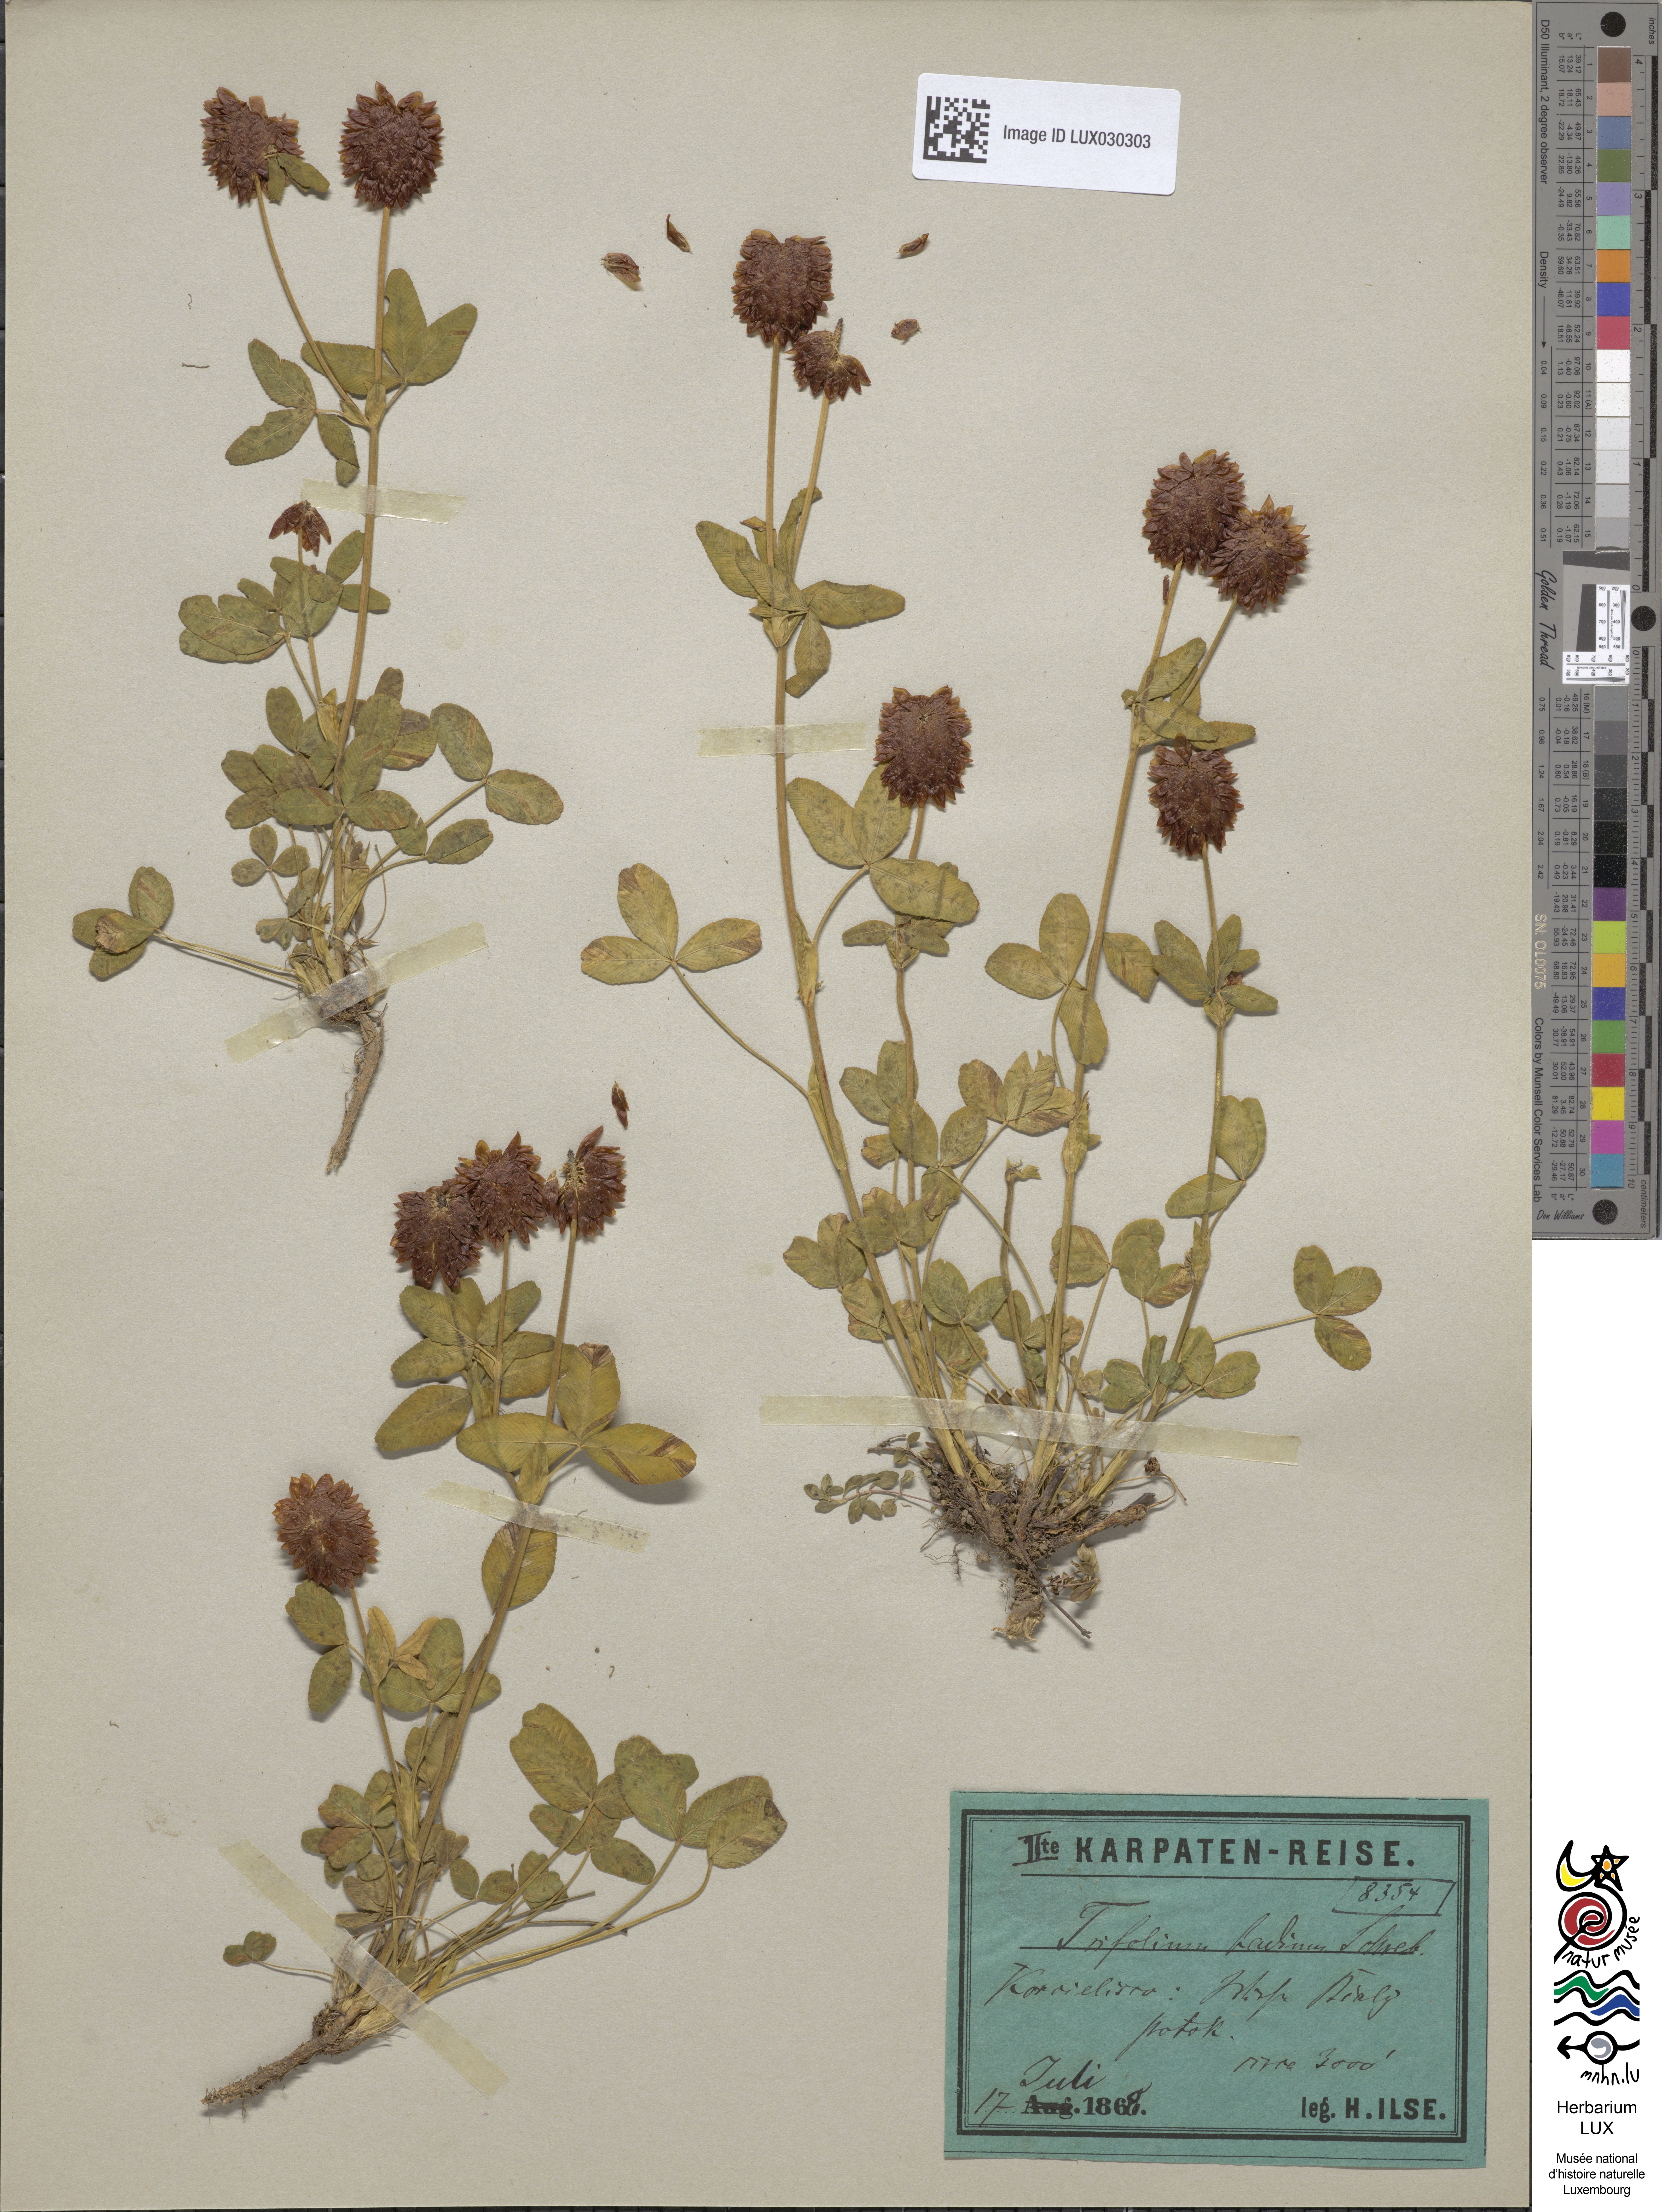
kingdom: Plantae
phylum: Tracheophyta
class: Magnoliopsida
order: Fabales
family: Fabaceae
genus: Trifolium
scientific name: Trifolium badium
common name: Brown clover
